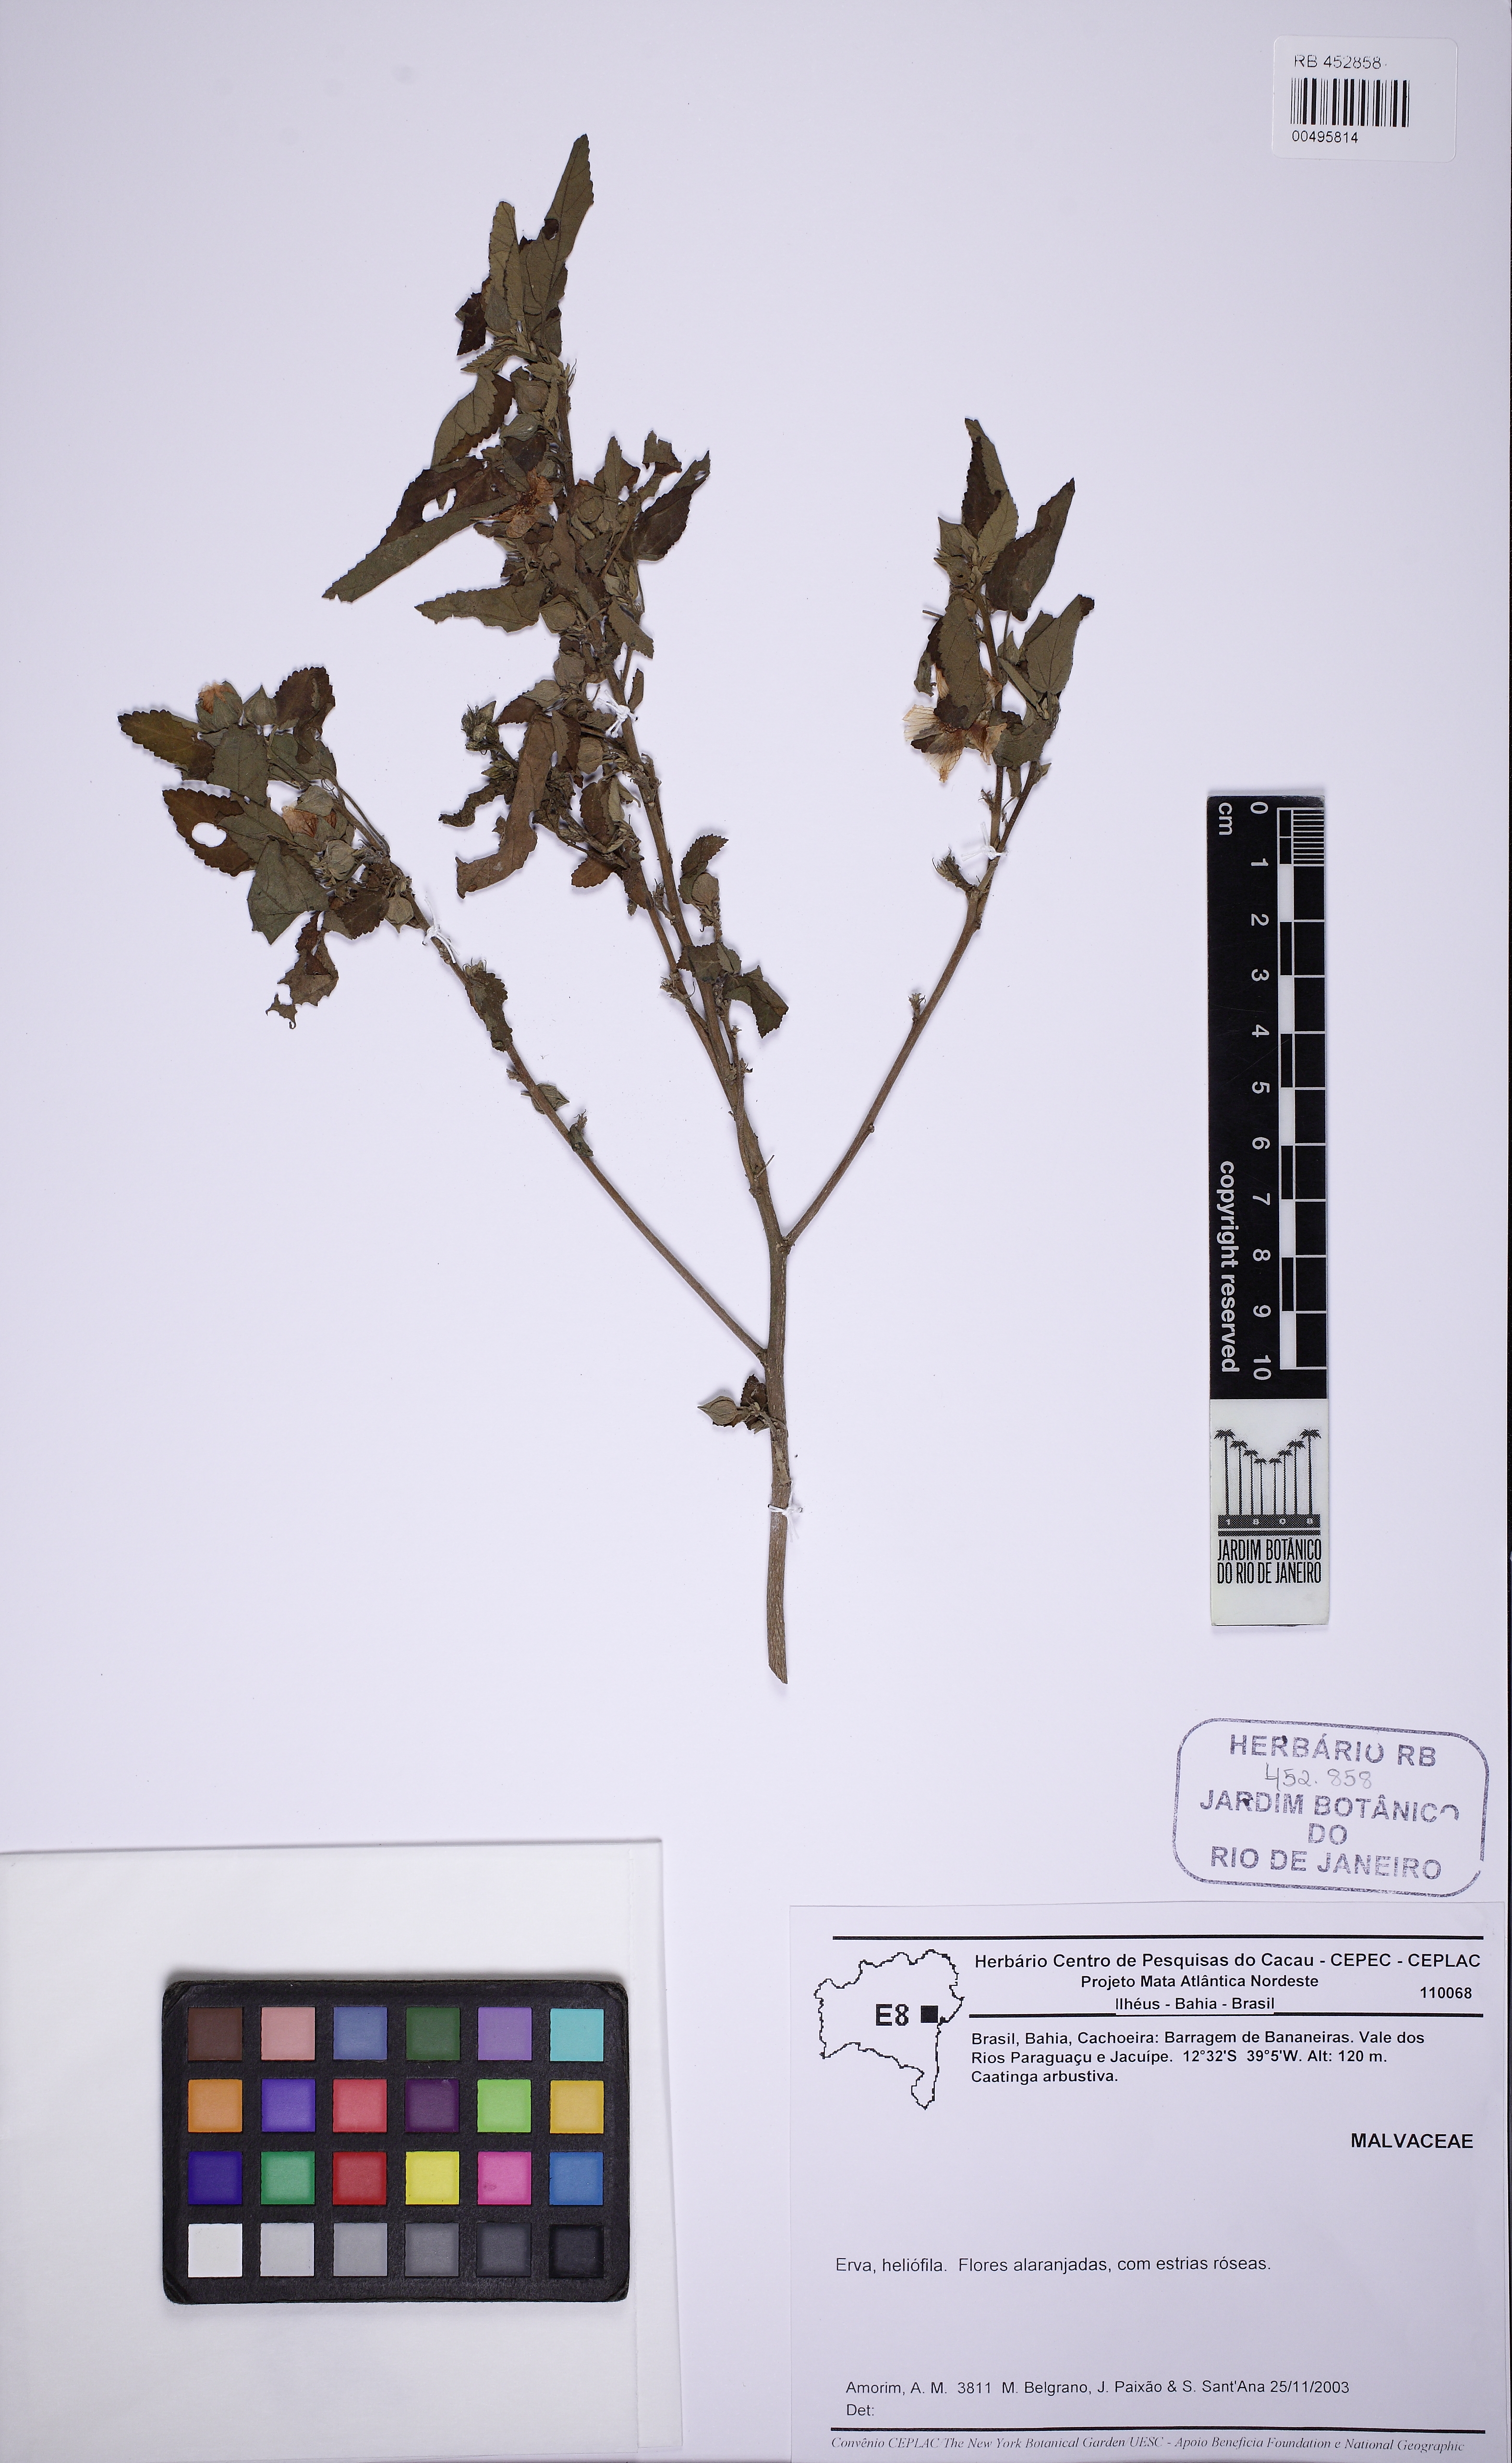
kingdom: Plantae
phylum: Tracheophyta
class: Magnoliopsida
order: Malvales
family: Malvaceae
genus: Sida
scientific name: Sida
